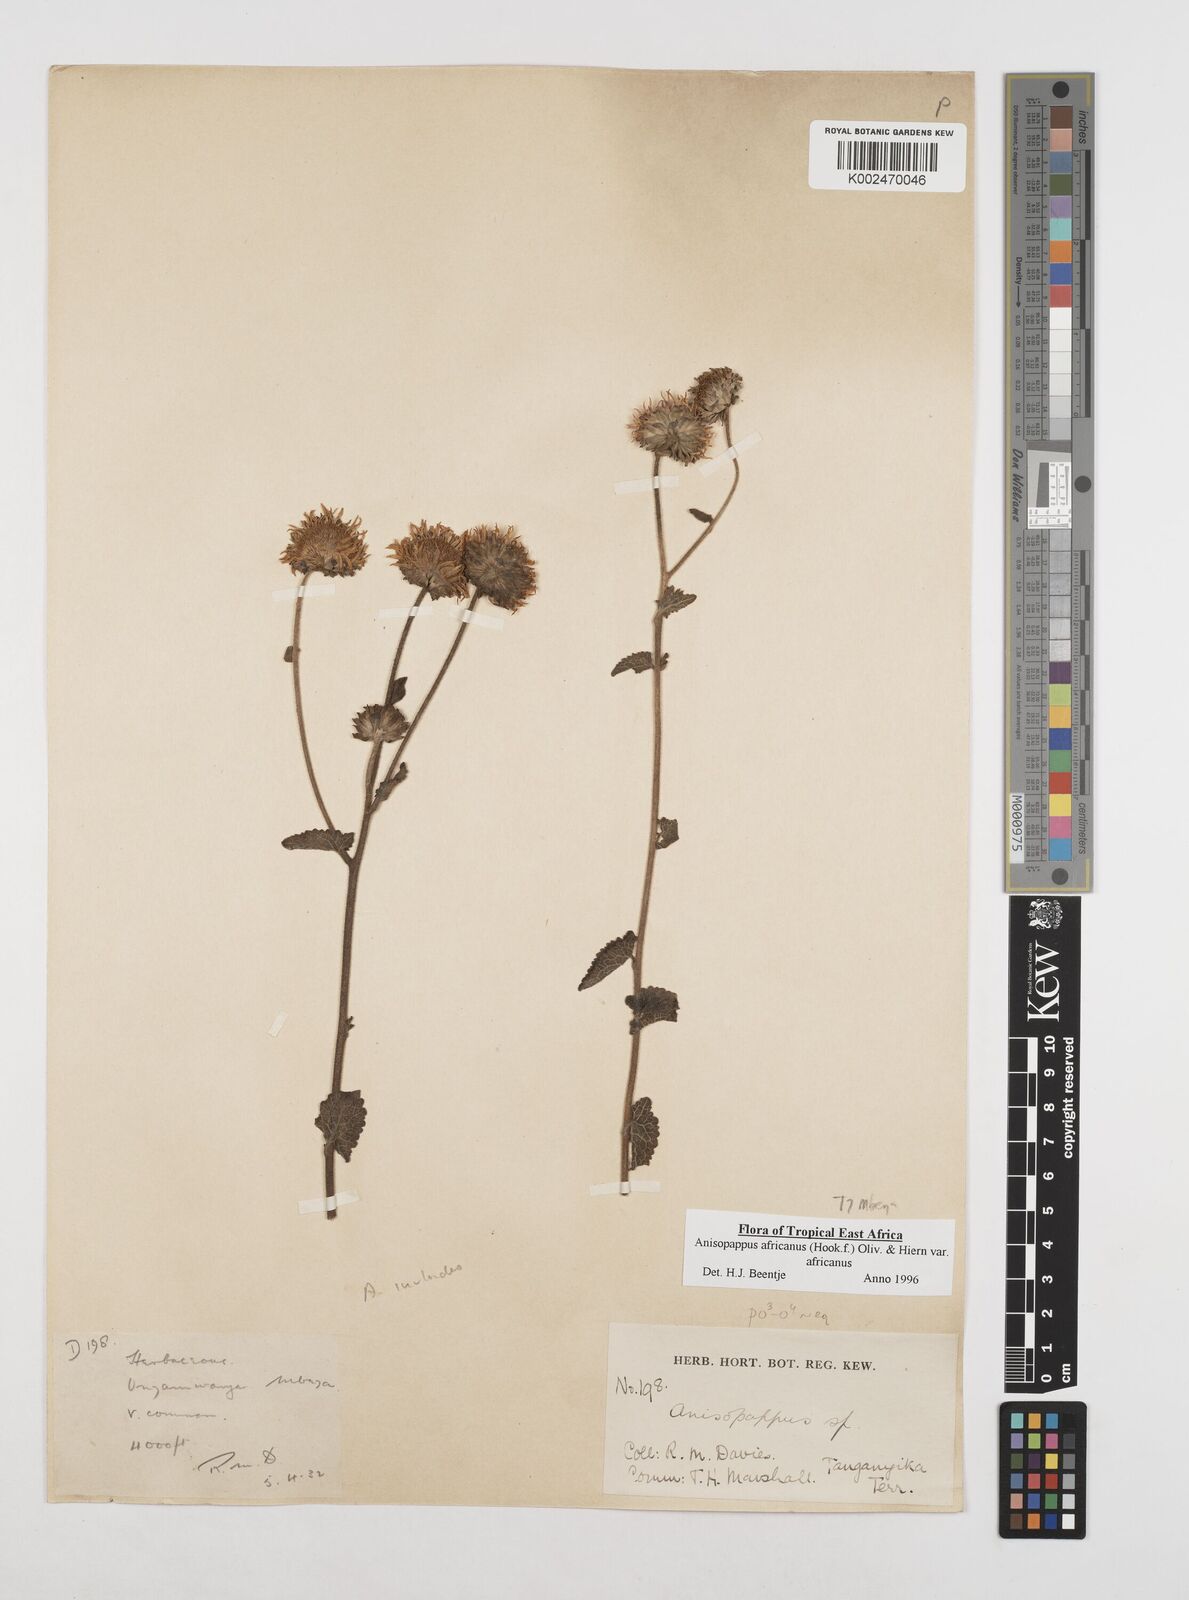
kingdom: Plantae
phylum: Tracheophyta
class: Magnoliopsida
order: Asterales
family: Asteraceae
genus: Anisopappus
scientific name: Anisopappus buchwaldii
